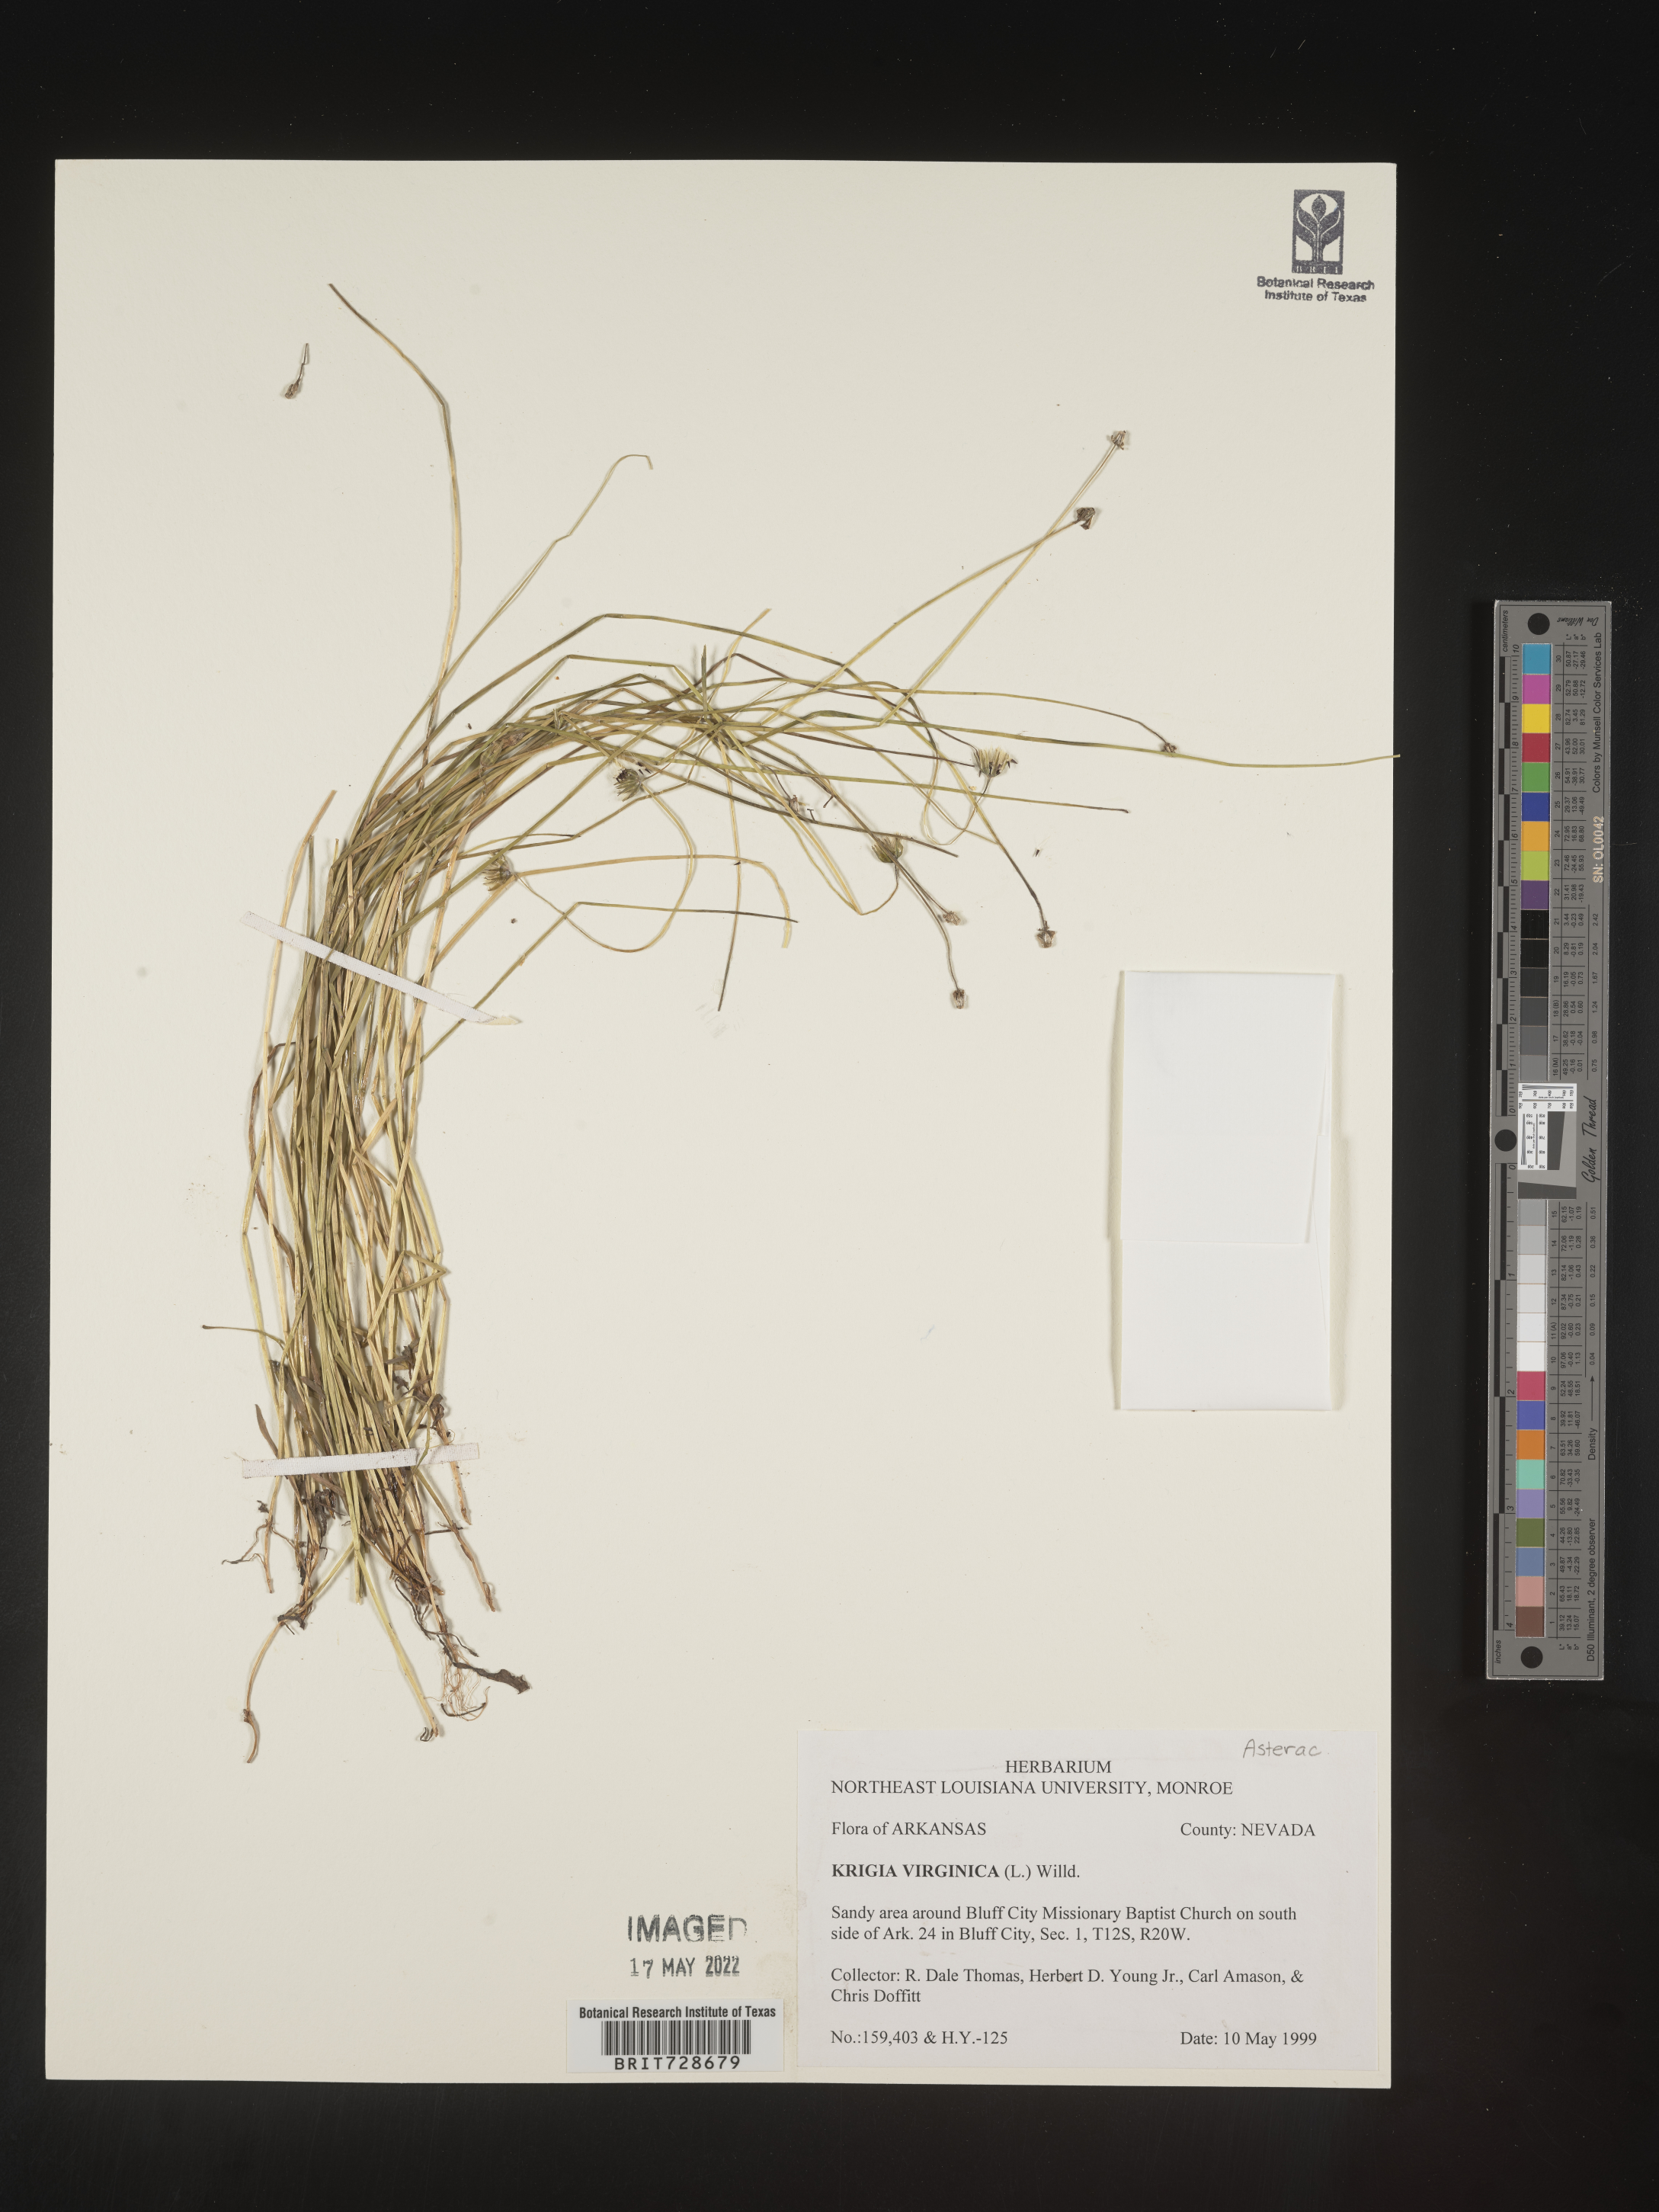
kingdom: Plantae
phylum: Tracheophyta
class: Magnoliopsida
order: Asterales
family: Asteraceae
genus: Krigia
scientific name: Krigia virginica
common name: Virginia dwarf-dandelion
